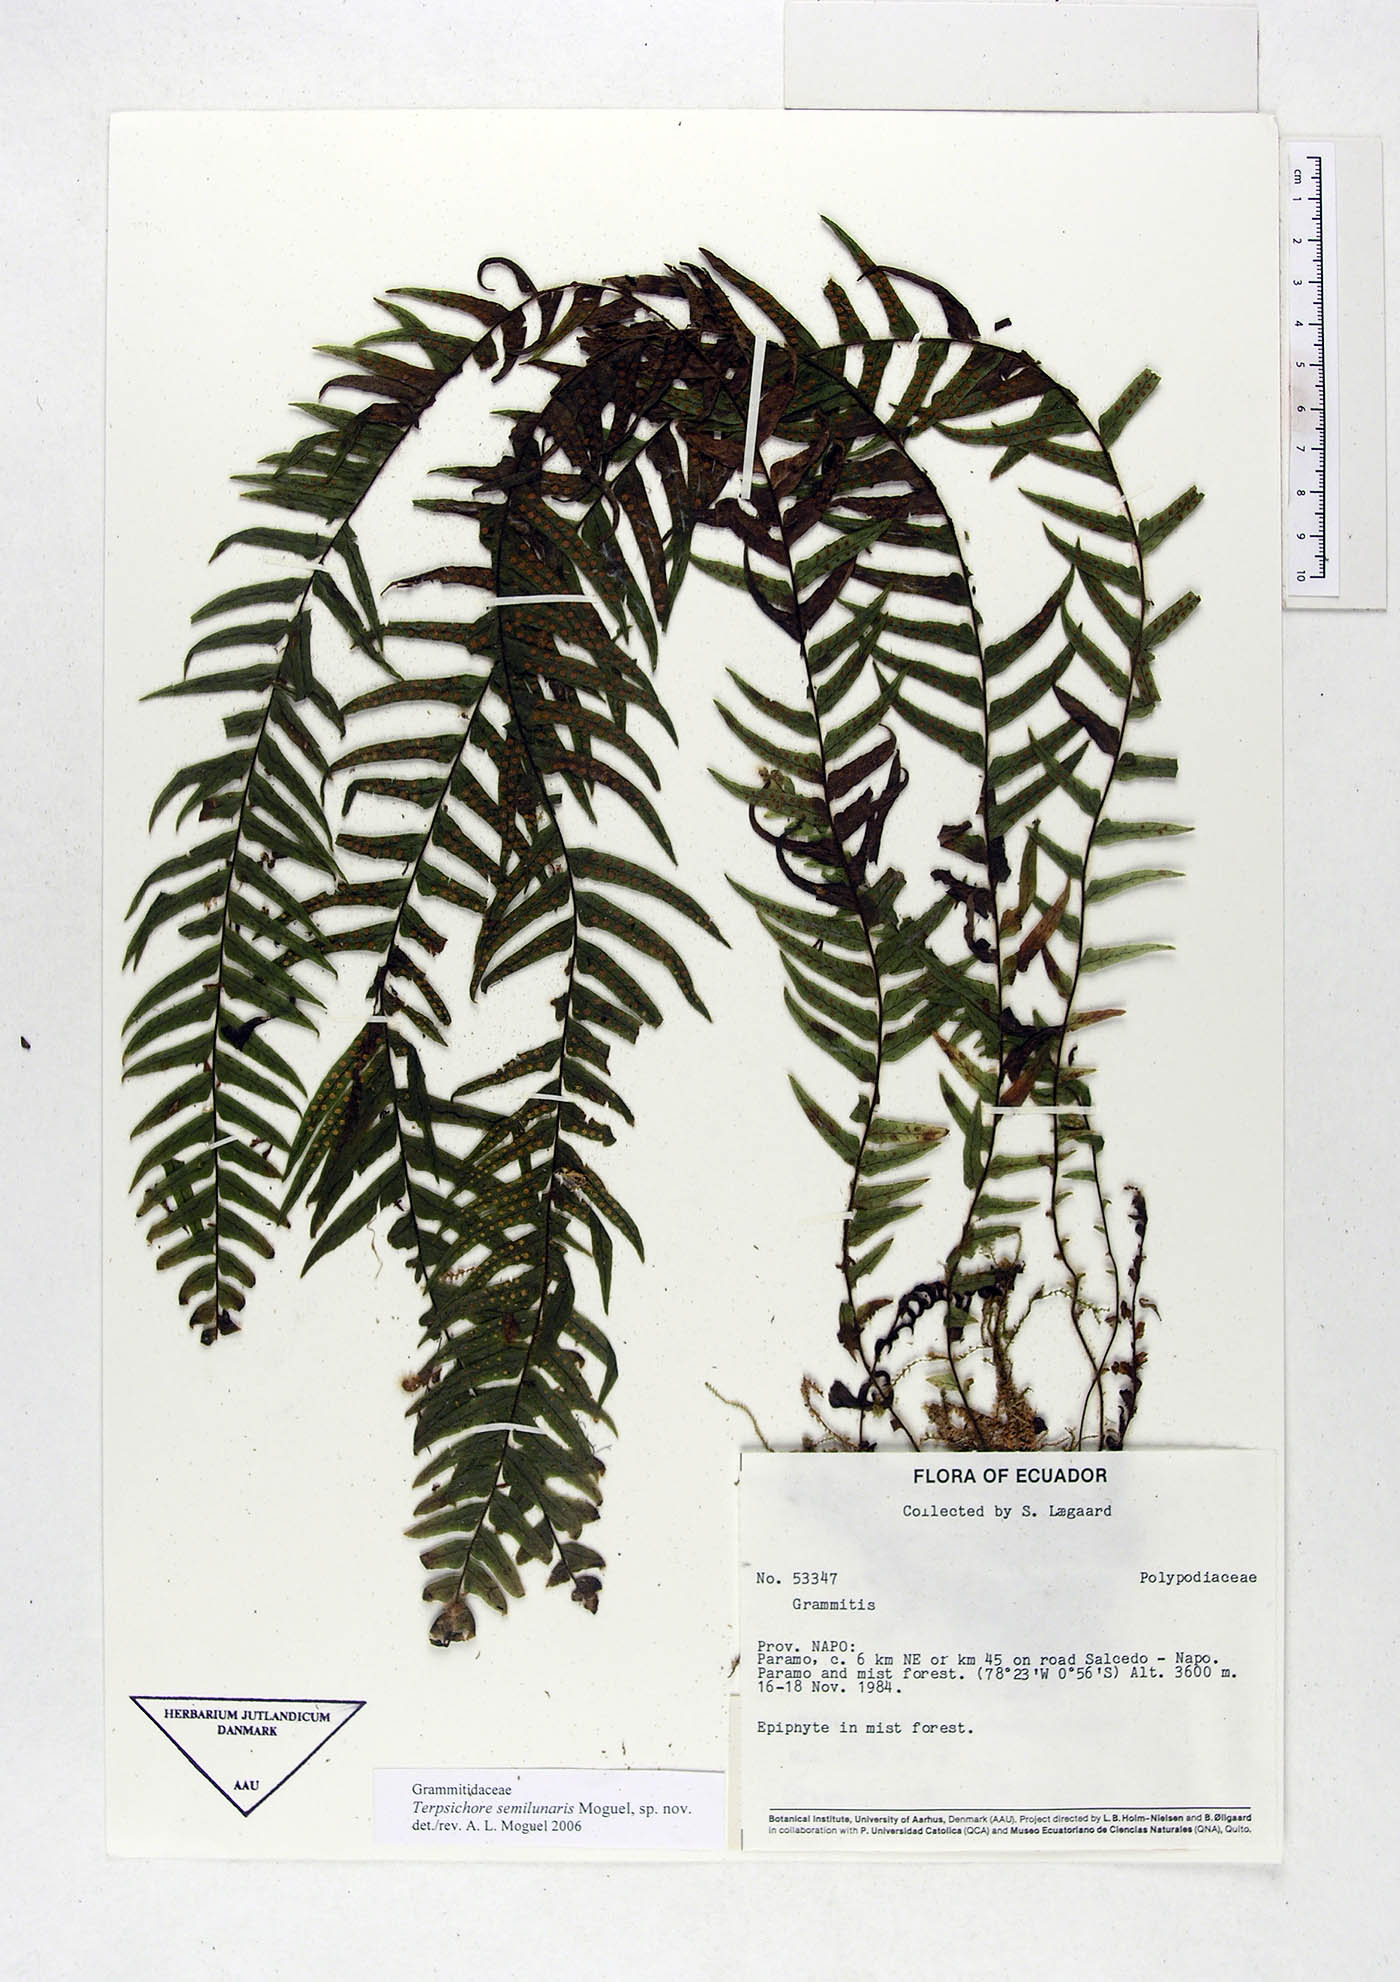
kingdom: Plantae
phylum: Tracheophyta
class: Polypodiopsida
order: Polypodiales
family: Polypodiaceae
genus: Alansmia
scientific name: Alansmia semilunaris
